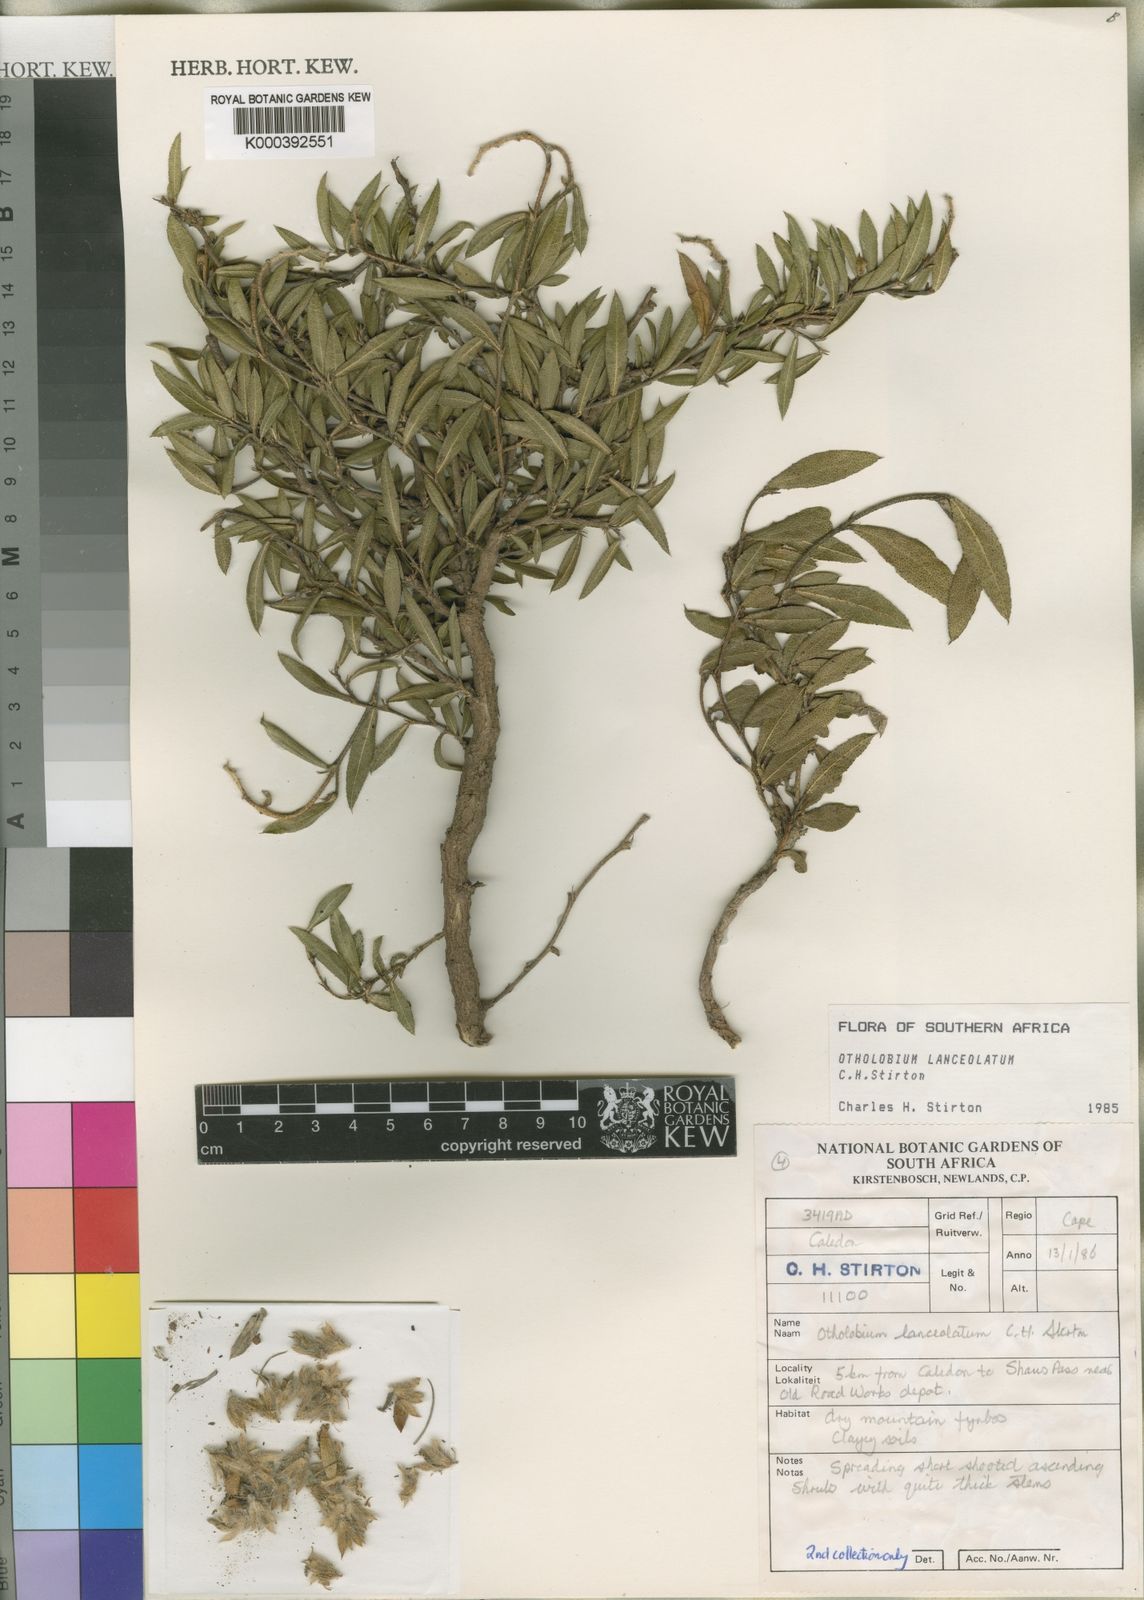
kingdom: Plantae
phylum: Tracheophyta
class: Magnoliopsida
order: Fabales
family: Fabaceae
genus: Psoralea
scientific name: Psoralea Otholobium lanceolatum
